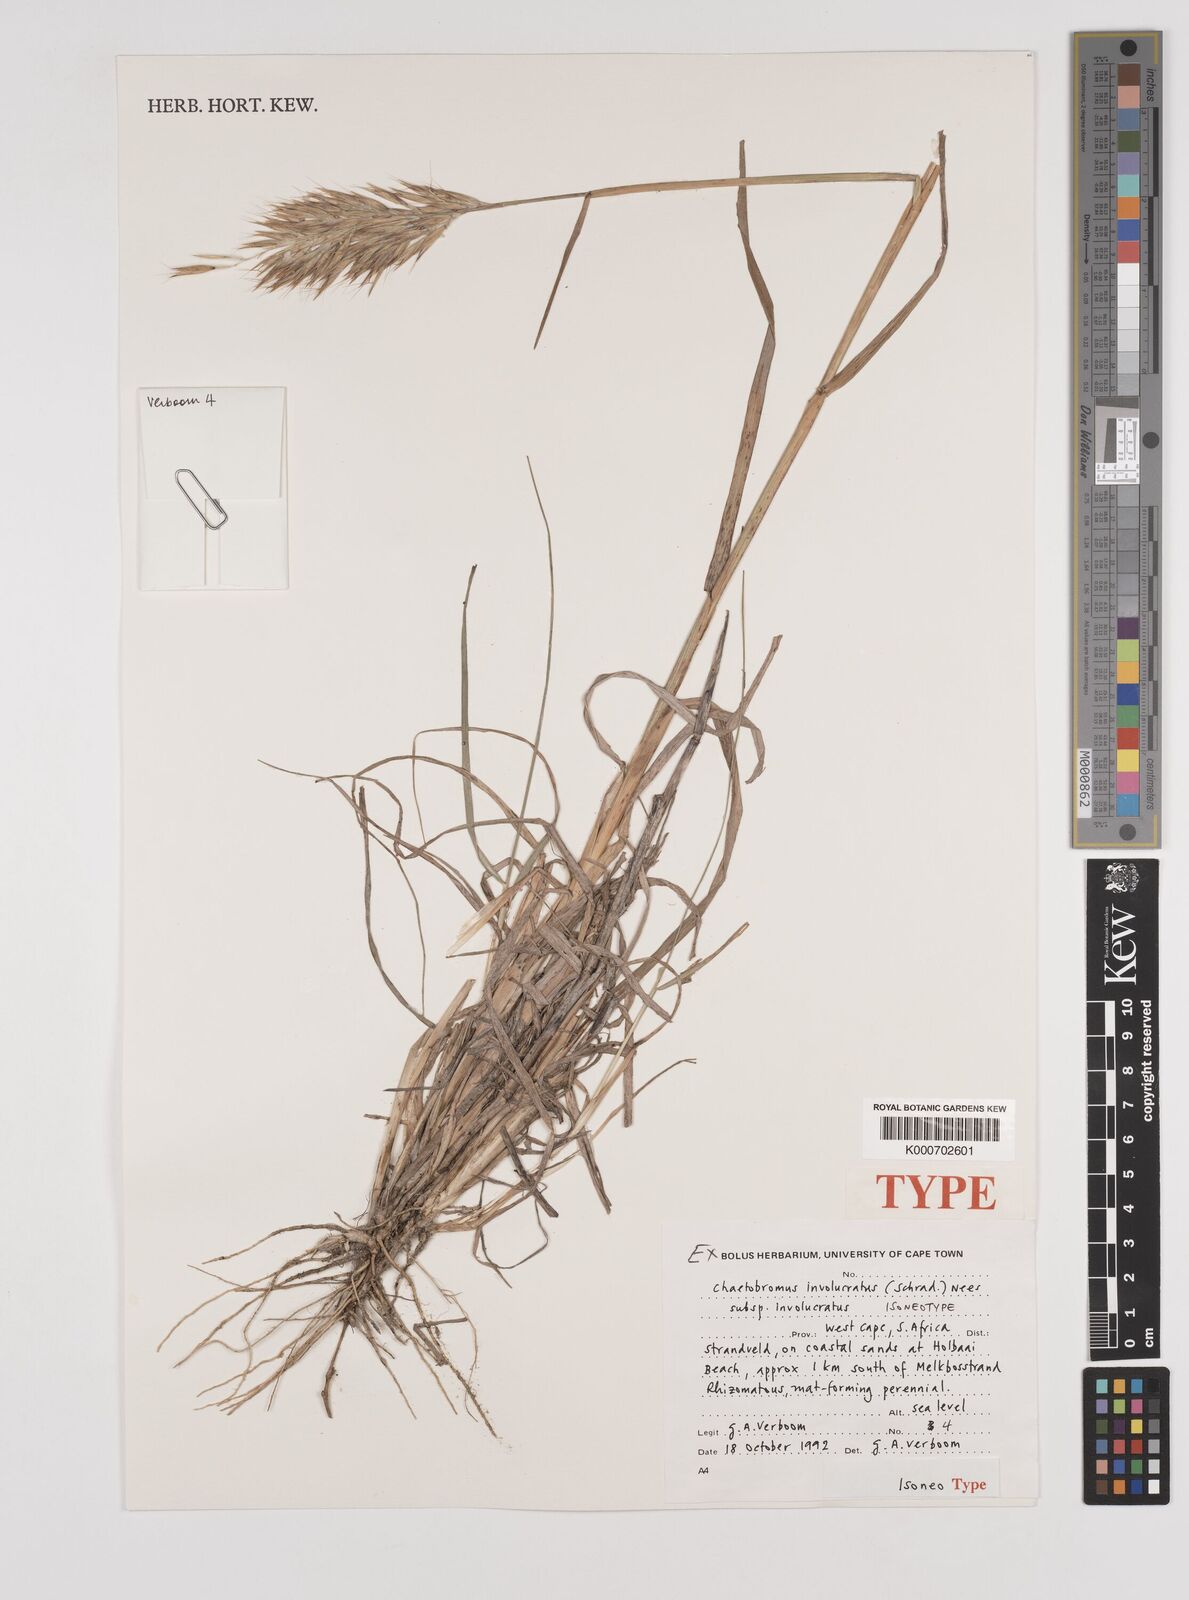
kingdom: Plantae
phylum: Tracheophyta
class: Liliopsida
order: Poales
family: Poaceae
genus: Chaetobromus
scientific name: Chaetobromus involucratus
